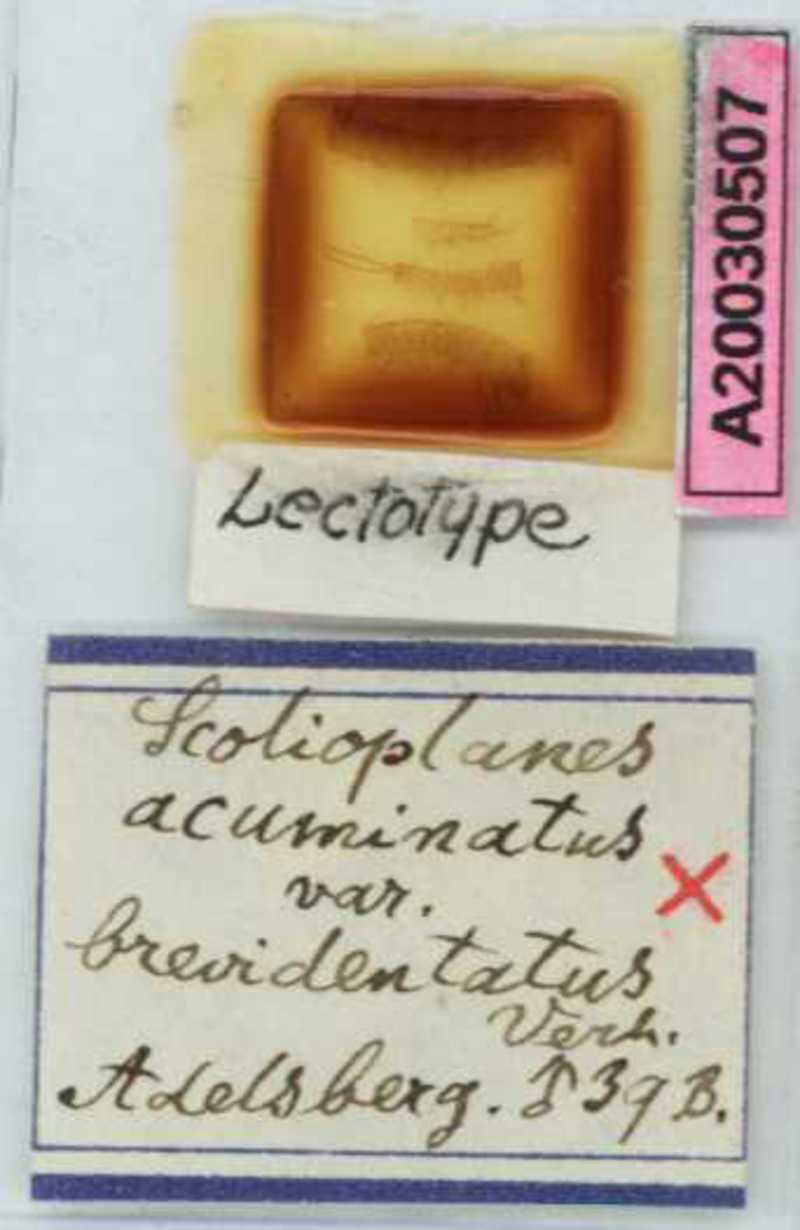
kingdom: Animalia
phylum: Arthropoda
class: Chilopoda
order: Geophilomorpha
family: Linotaeniidae
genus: Strigamia
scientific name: Strigamia acuminata
